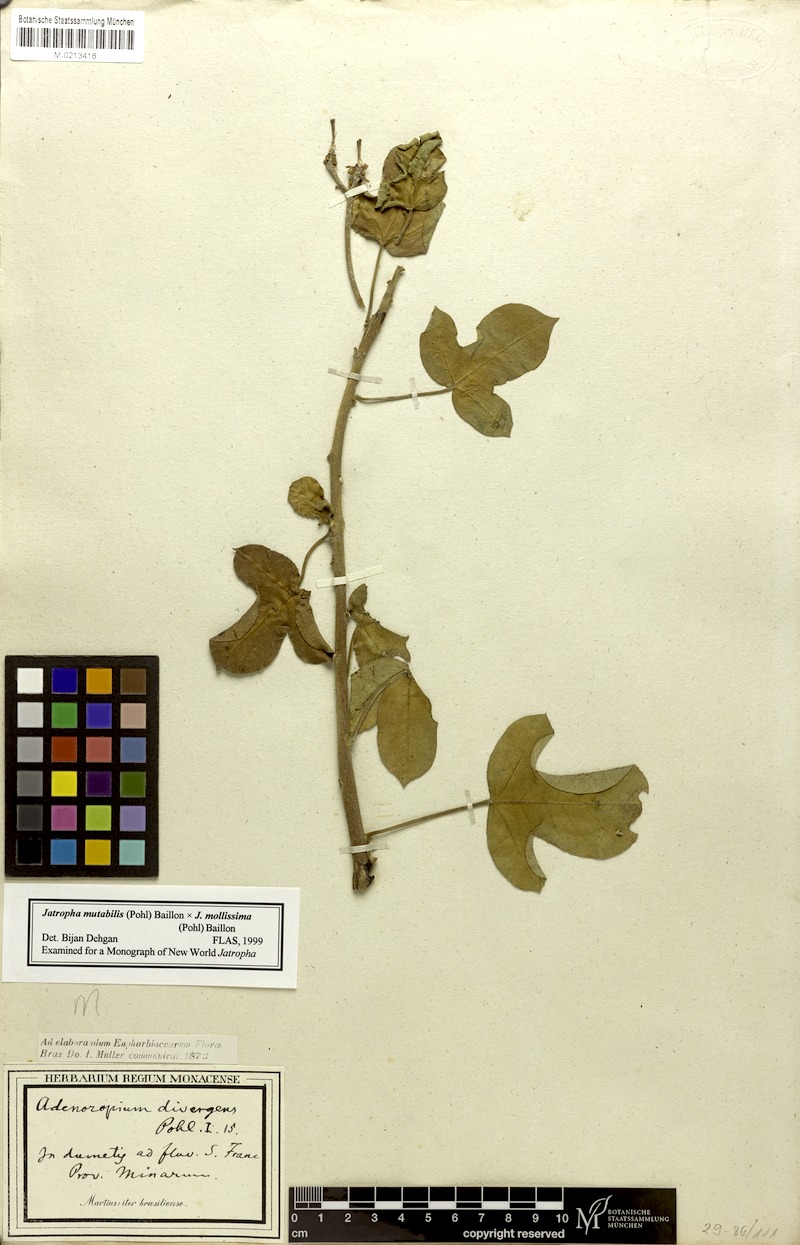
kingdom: Plantae
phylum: Tracheophyta
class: Magnoliopsida
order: Malpighiales
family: Euphorbiaceae
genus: Jatropha
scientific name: Jatropha mollissima
